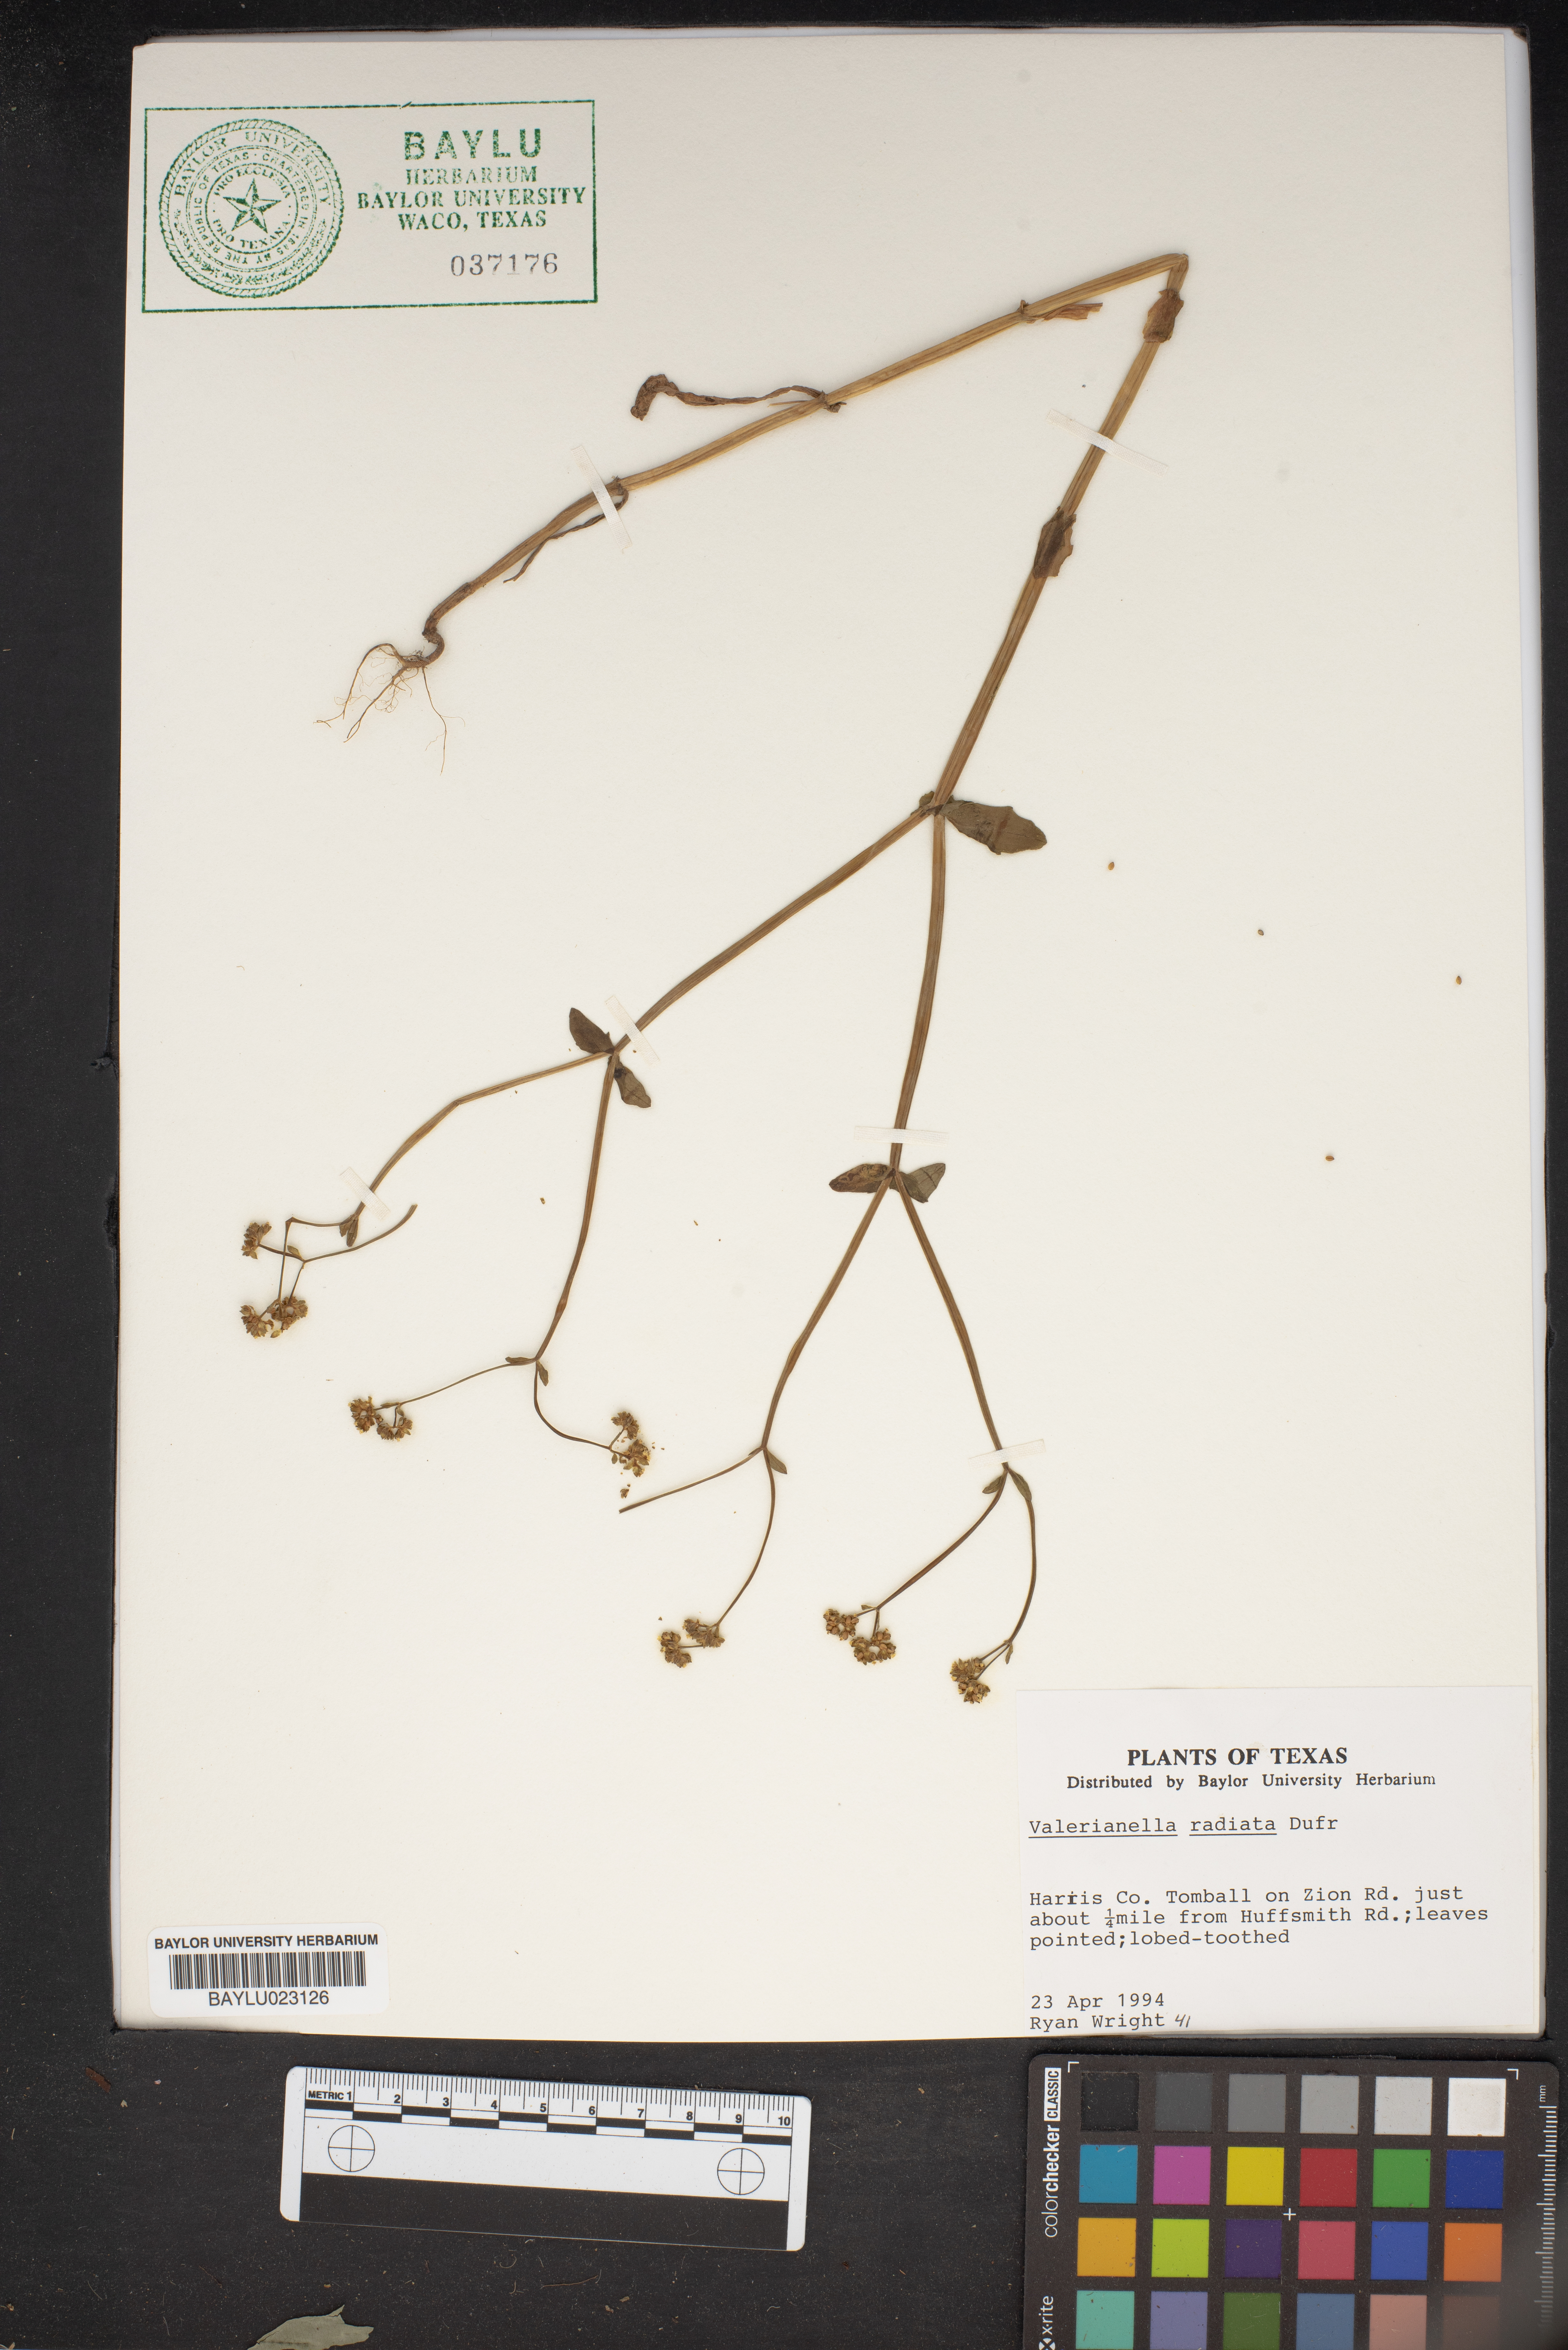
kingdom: Plantae
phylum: Tracheophyta
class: Magnoliopsida
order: Dipsacales
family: Caprifoliaceae
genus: Valerianella
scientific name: Valerianella radiata
